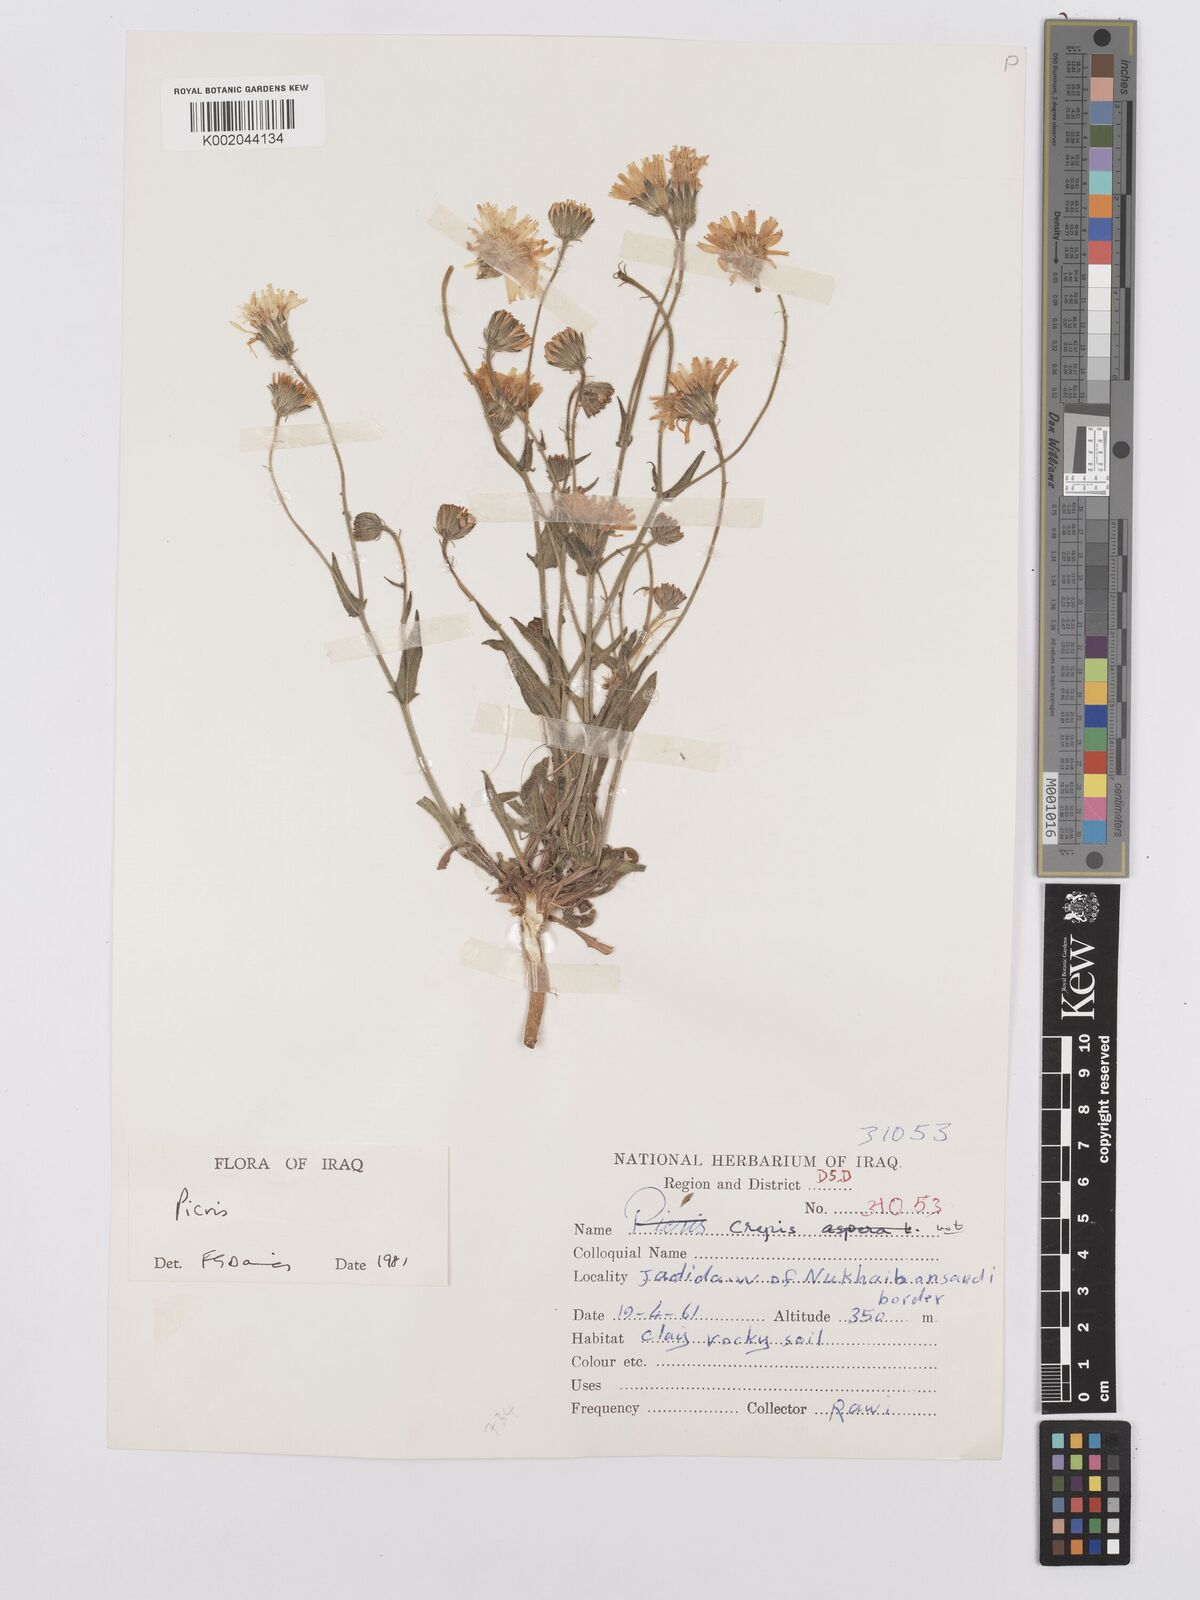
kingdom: Plantae
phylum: Tracheophyta
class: Magnoliopsida
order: Asterales
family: Asteraceae
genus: Picris
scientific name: Picris
